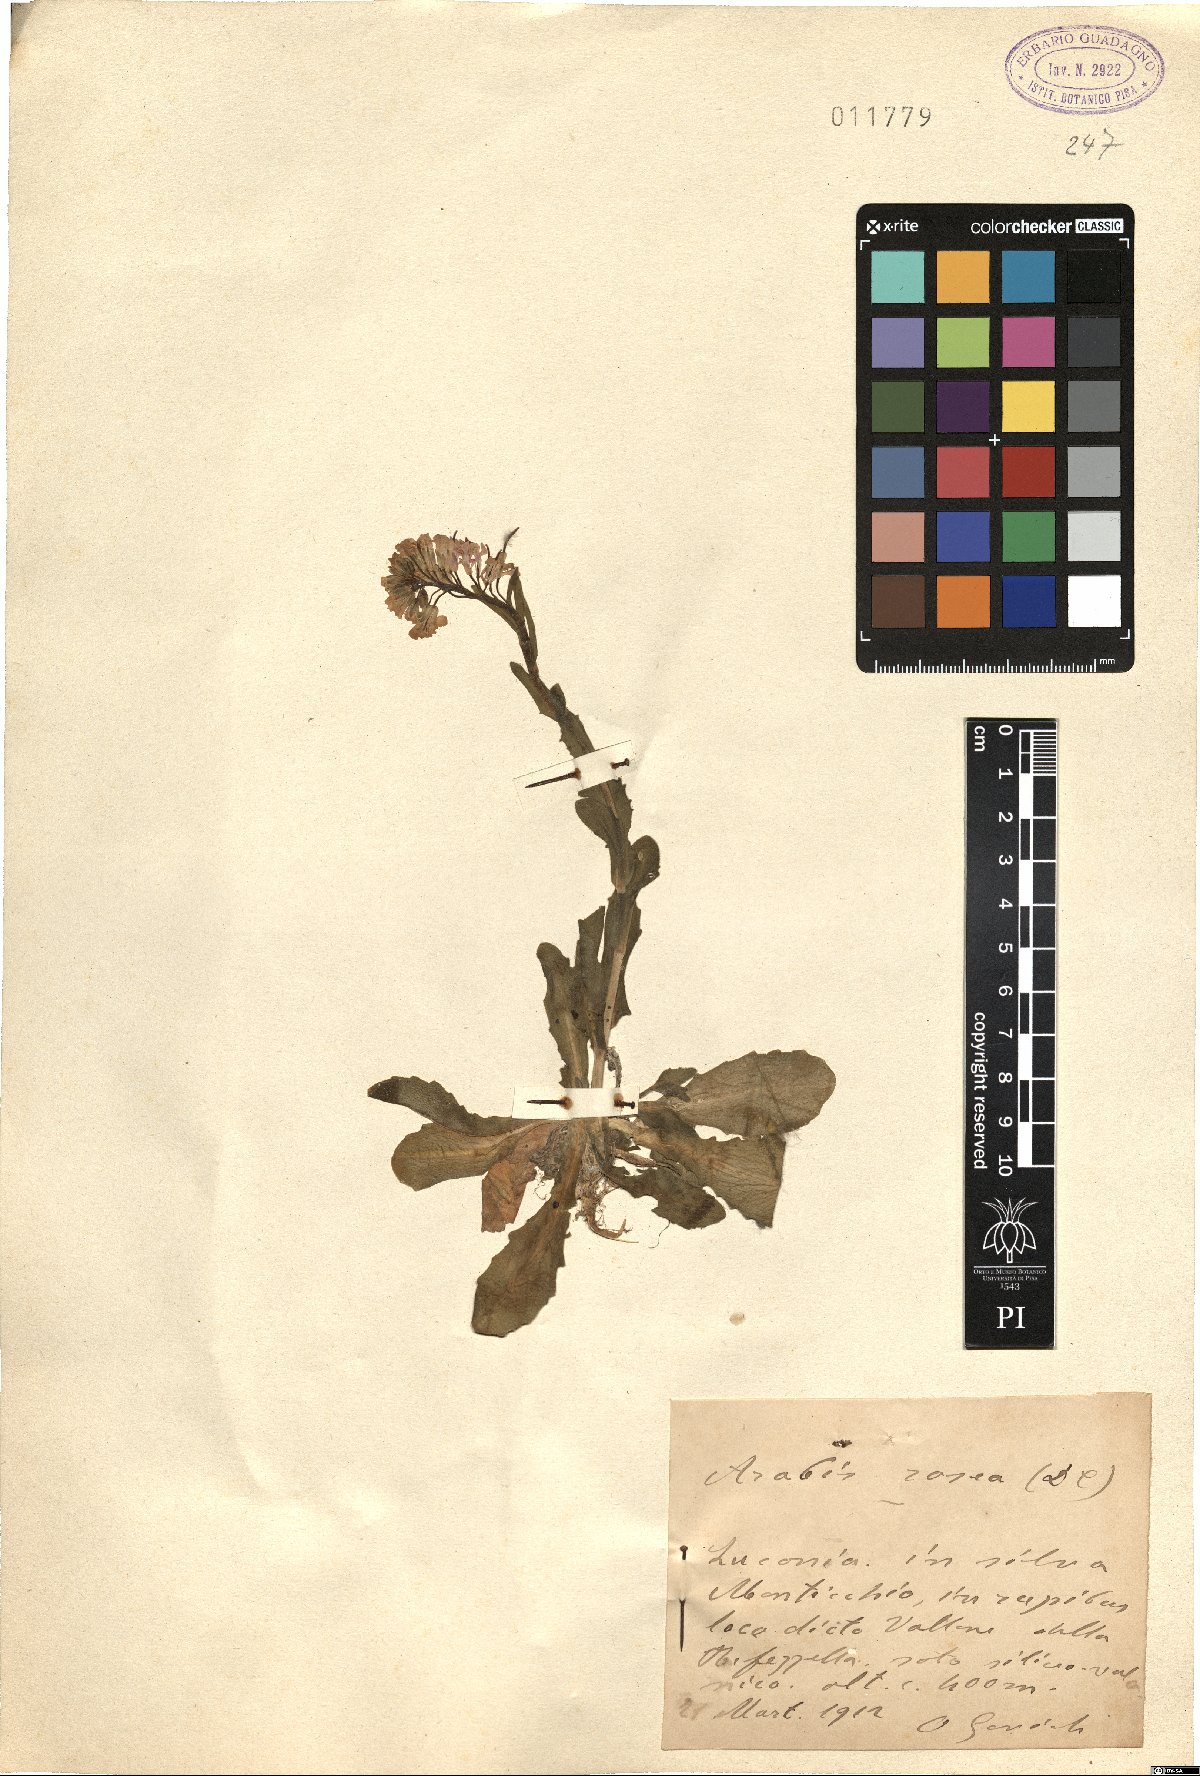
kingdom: Plantae
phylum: Tracheophyta
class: Magnoliopsida
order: Brassicales
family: Brassicaceae
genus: Arabis
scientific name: Arabis collina
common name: Rosy cress
